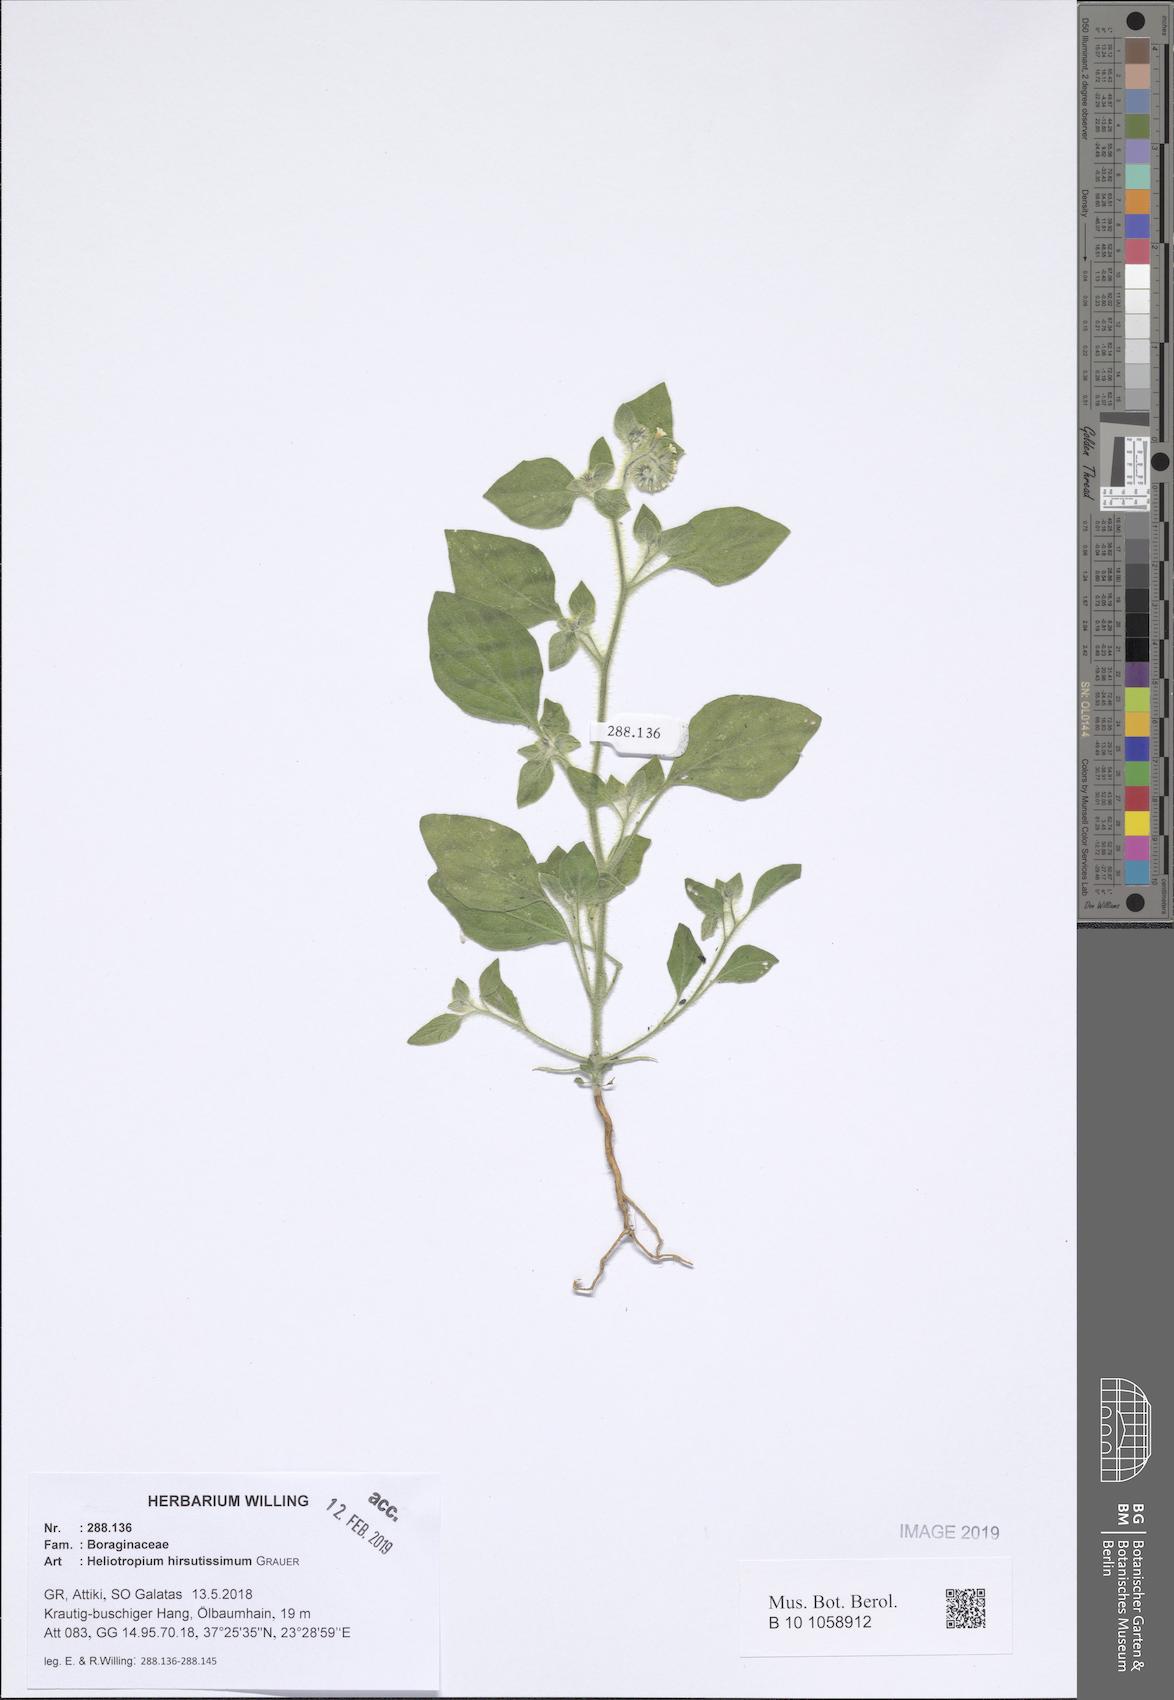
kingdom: Plantae
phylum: Tracheophyta
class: Magnoliopsida
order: Boraginales
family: Heliotropiaceae
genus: Heliotropium
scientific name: Heliotropium hirsutissimum
